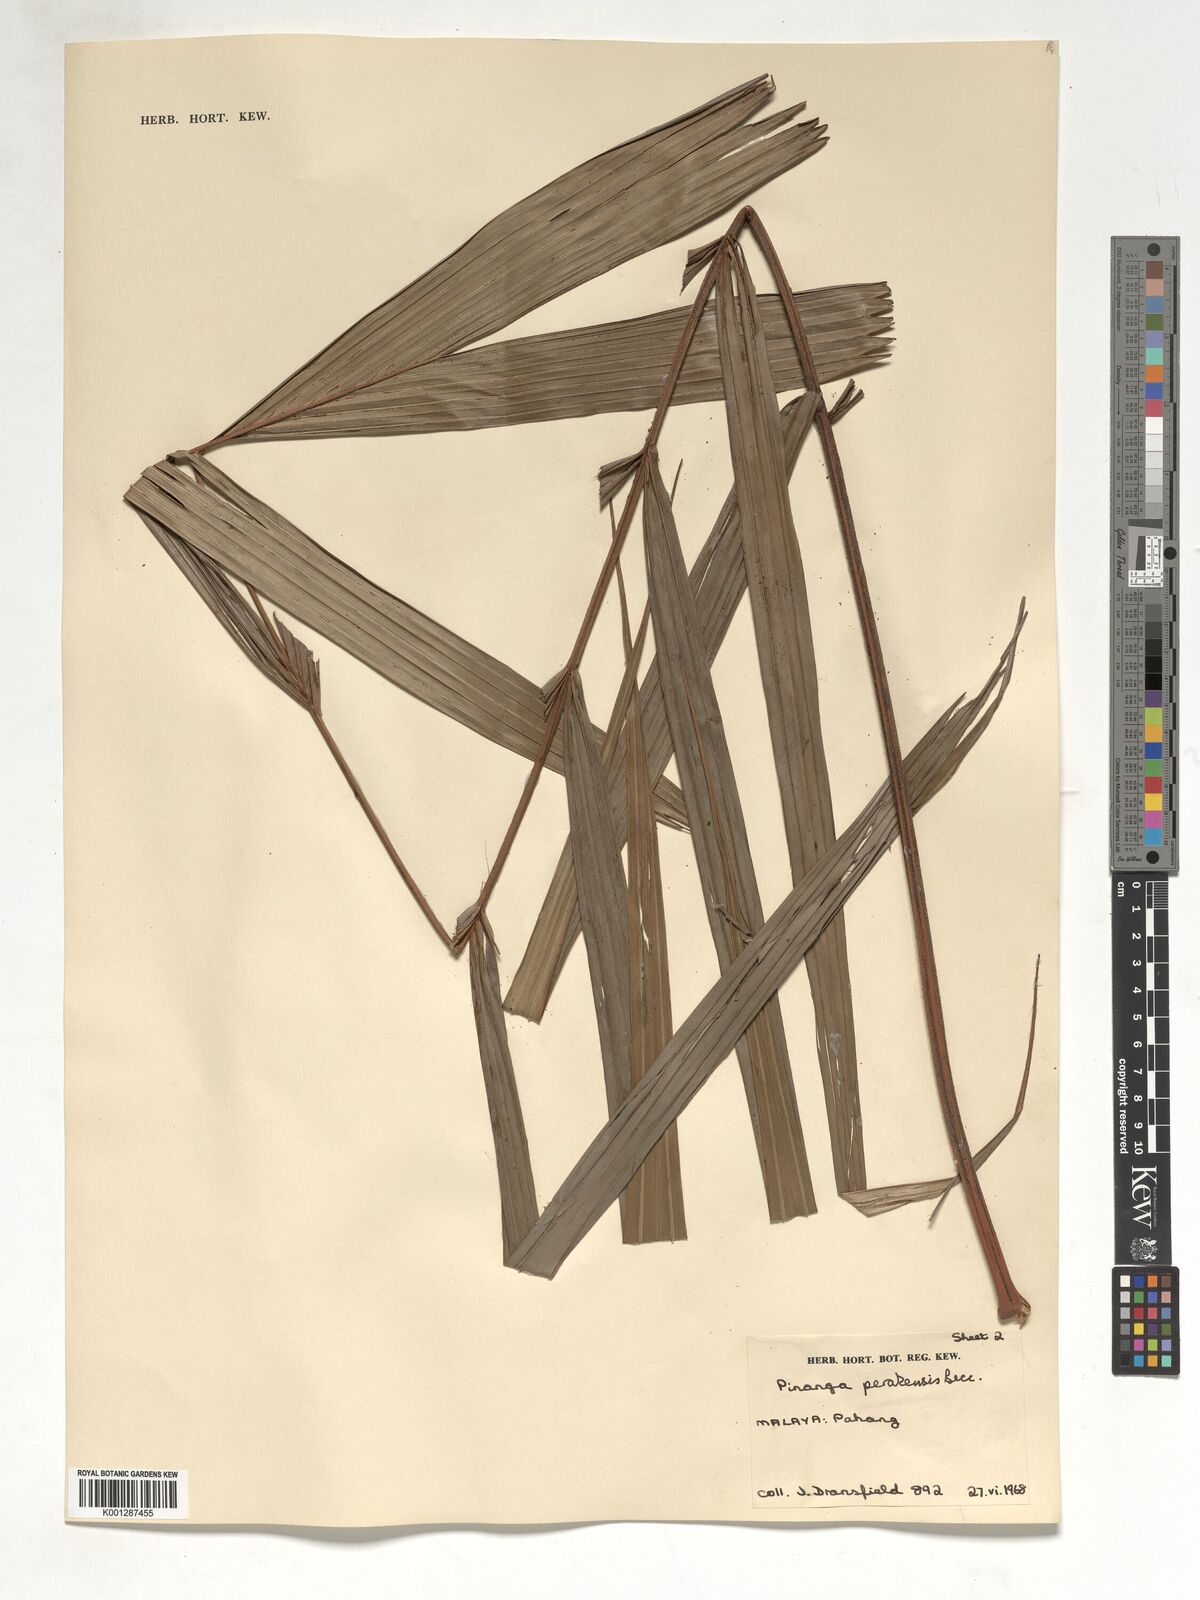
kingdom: Plantae
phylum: Tracheophyta
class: Liliopsida
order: Arecales
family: Arecaceae
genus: Pinanga
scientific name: Pinanga perakensis
